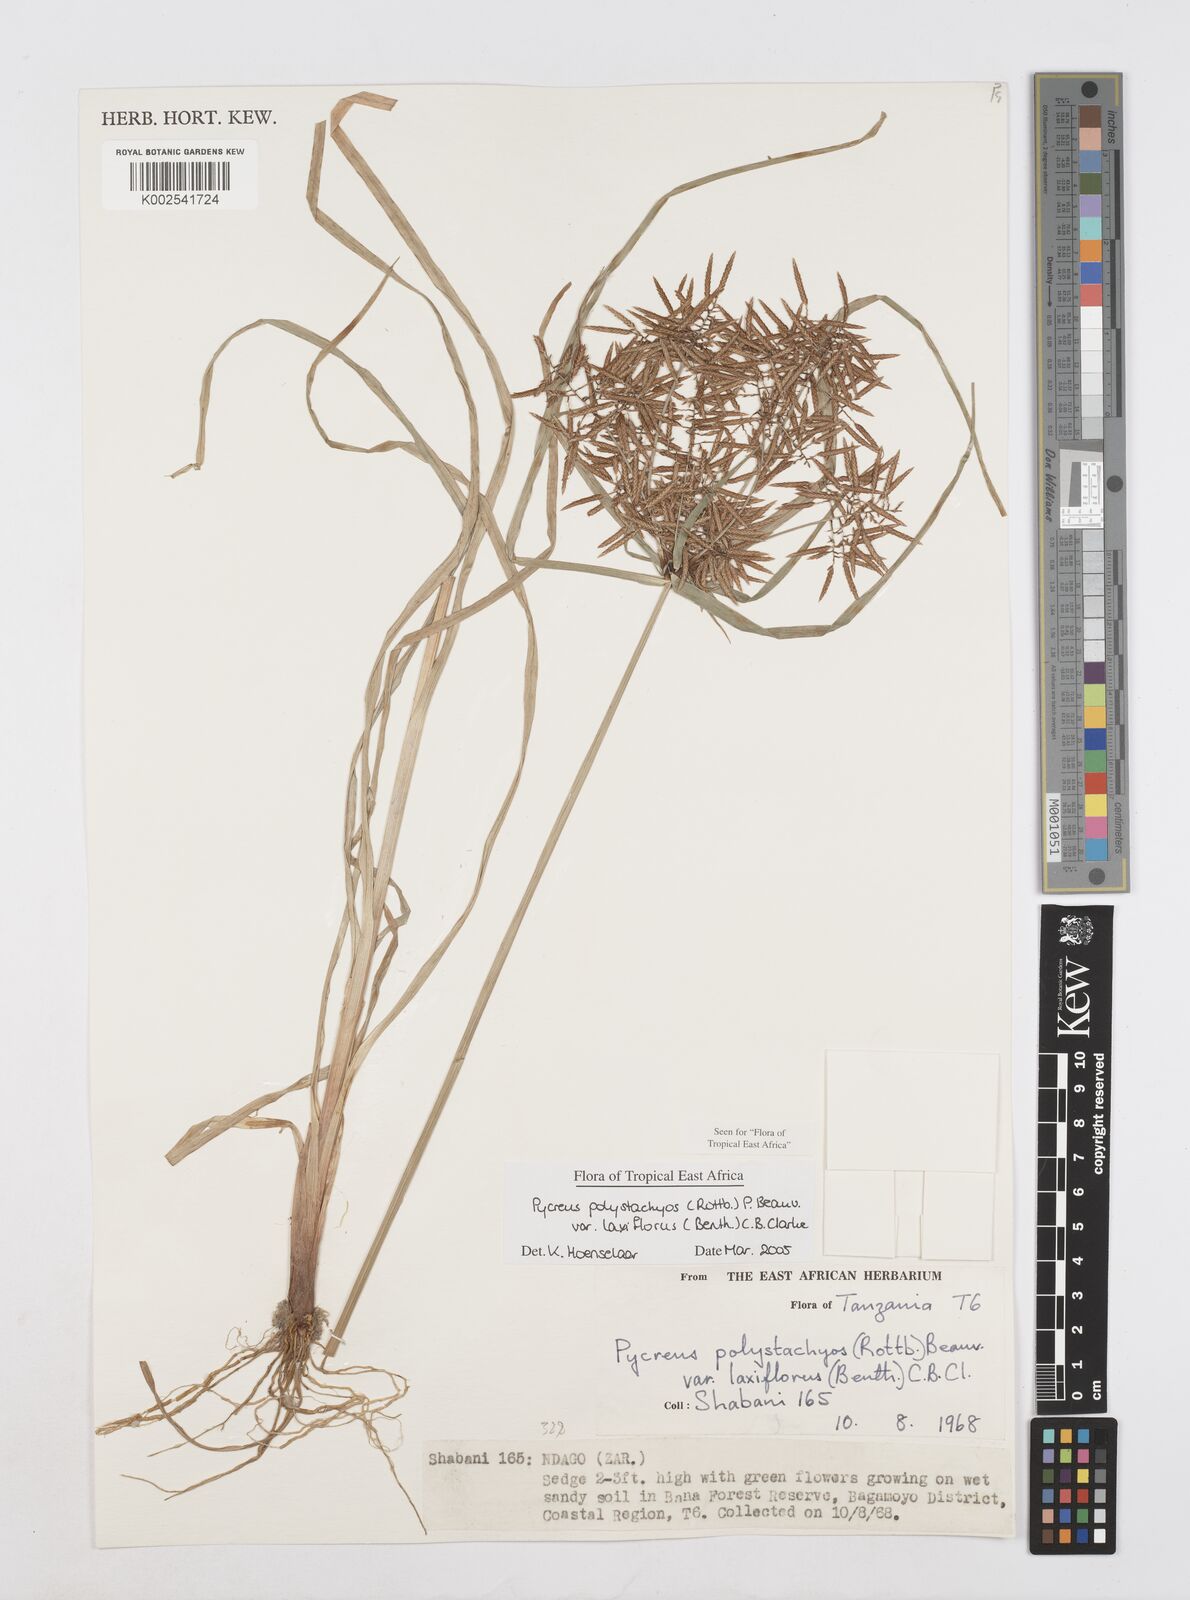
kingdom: Plantae
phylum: Tracheophyta
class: Liliopsida
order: Poales
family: Cyperaceae
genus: Cyperus
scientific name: Cyperus polystachyos
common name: Bunchy flat sedge
